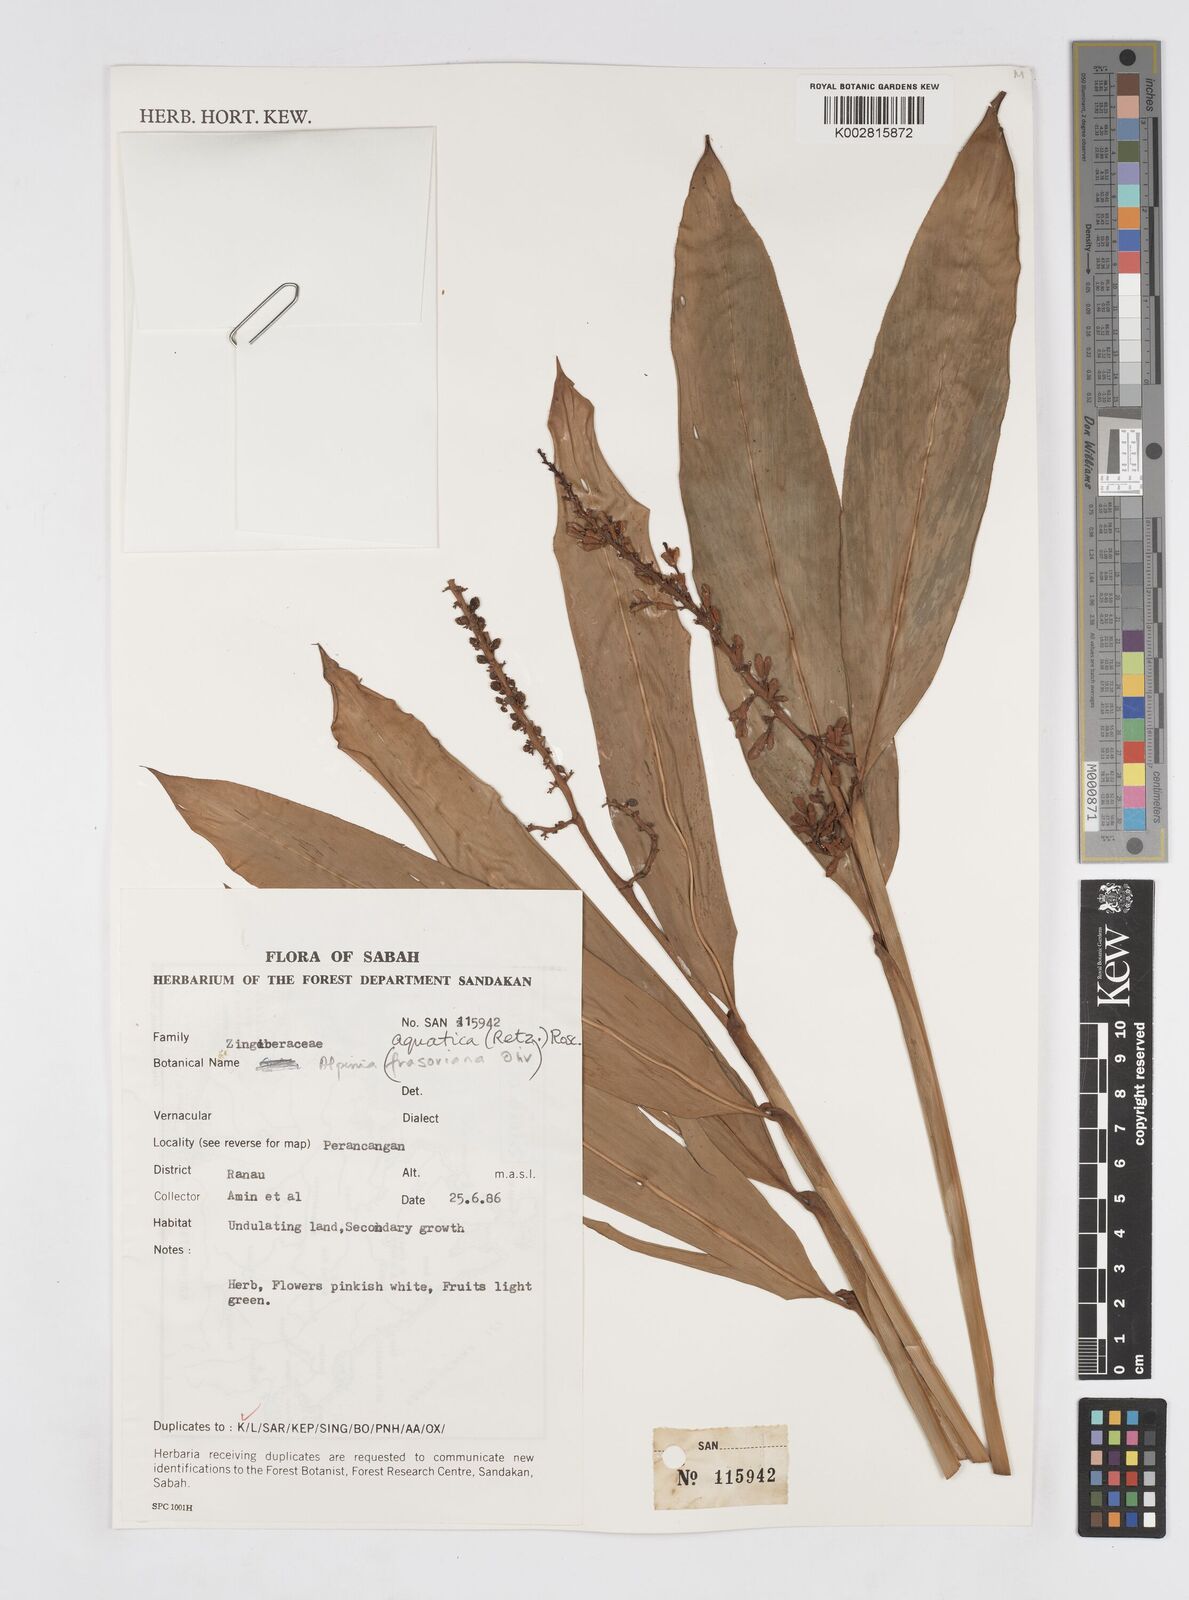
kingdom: Plantae
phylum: Tracheophyta
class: Liliopsida
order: Zingiberales
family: Zingiberaceae
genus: Alpinia
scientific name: Alpinia aquatica
